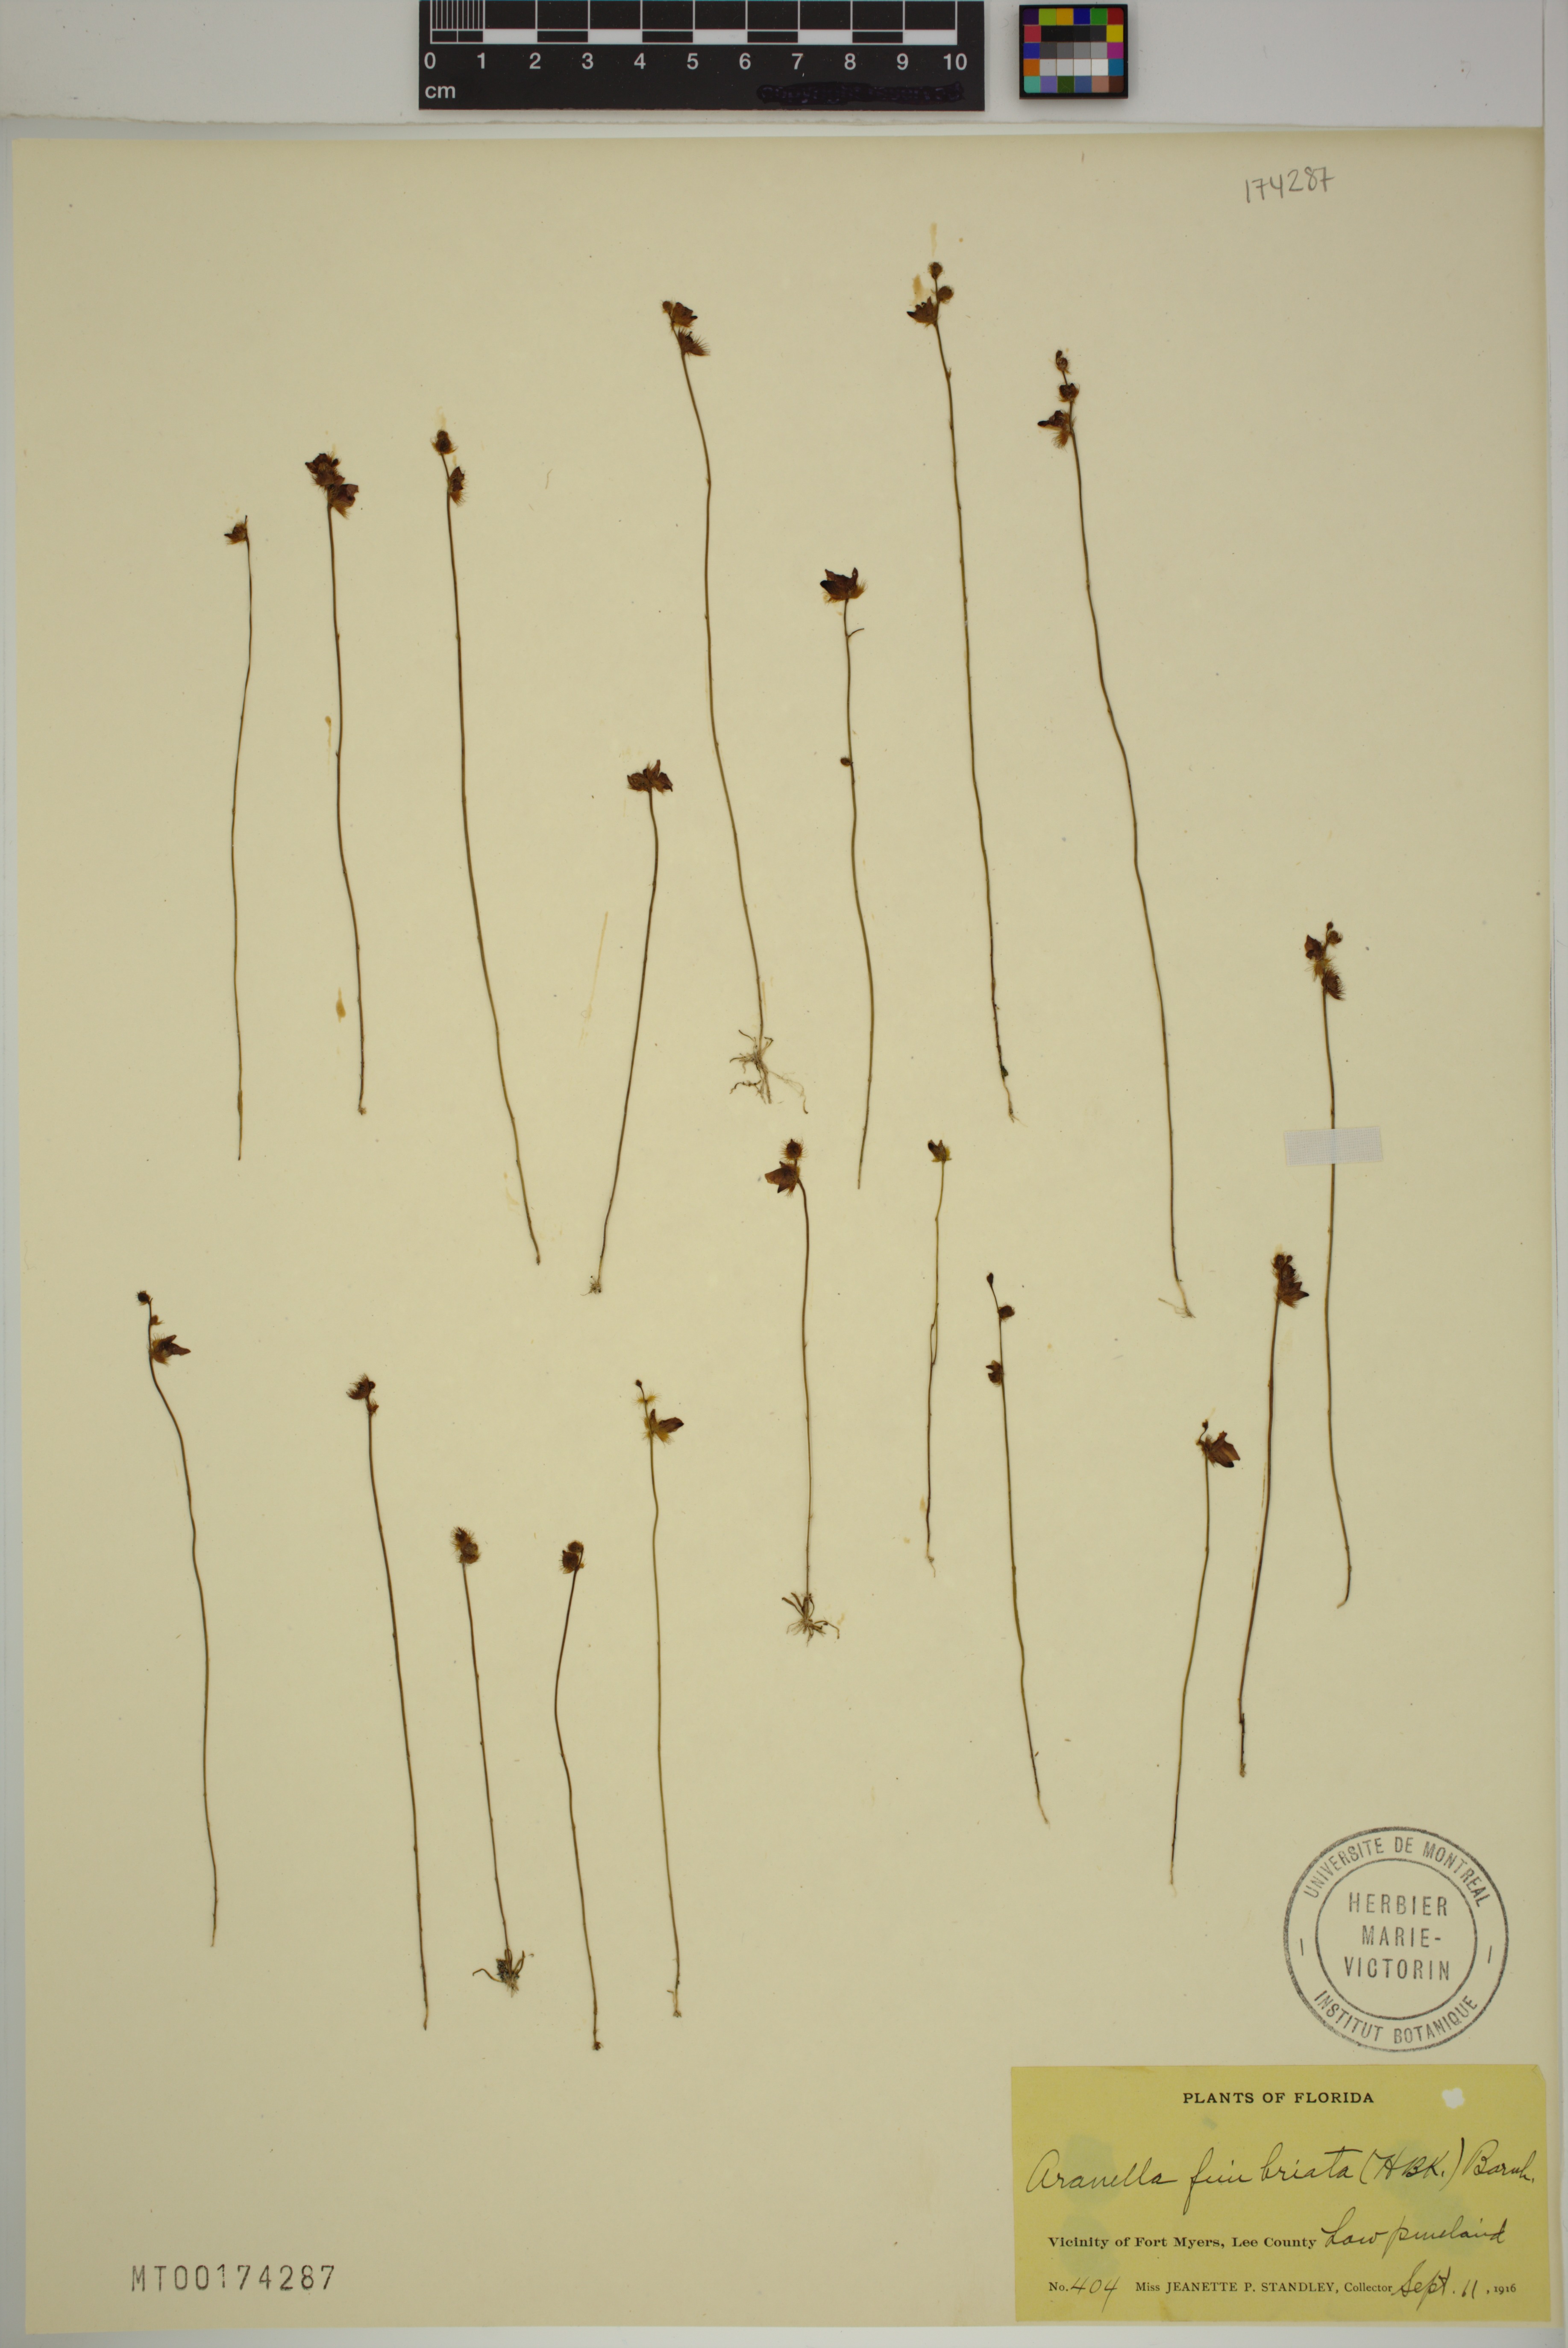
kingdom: Plantae
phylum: Tracheophyta
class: Magnoliopsida
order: Lamiales
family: Lentibulariaceae
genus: Utricularia
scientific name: Utricularia simulans
